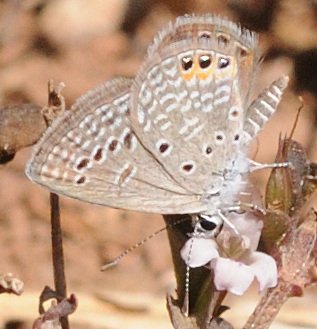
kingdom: Animalia
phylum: Arthropoda
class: Insecta
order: Lepidoptera
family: Lycaenidae
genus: Freyeria
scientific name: Freyeria trochylus
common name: Grass Jewel
